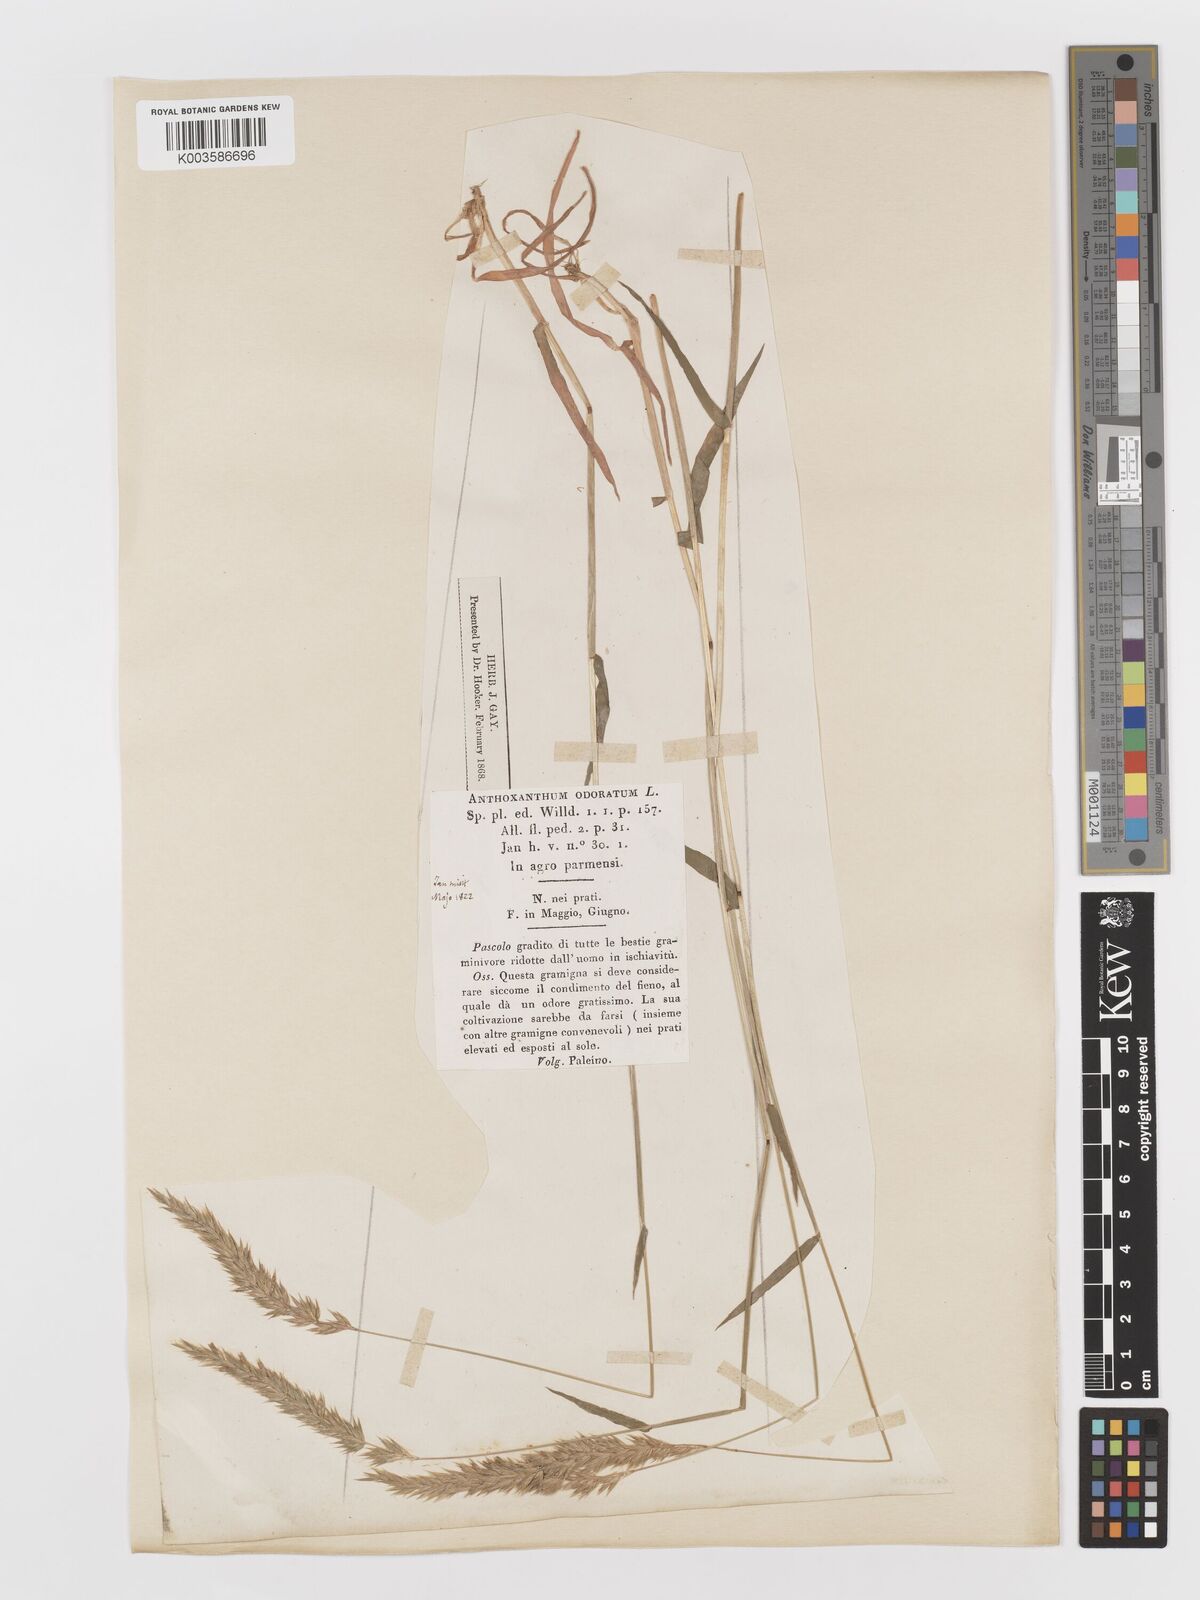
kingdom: Plantae
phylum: Tracheophyta
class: Liliopsida
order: Poales
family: Poaceae
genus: Anthoxanthum
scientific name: Anthoxanthum odoratum
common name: Sweet vernalgrass
